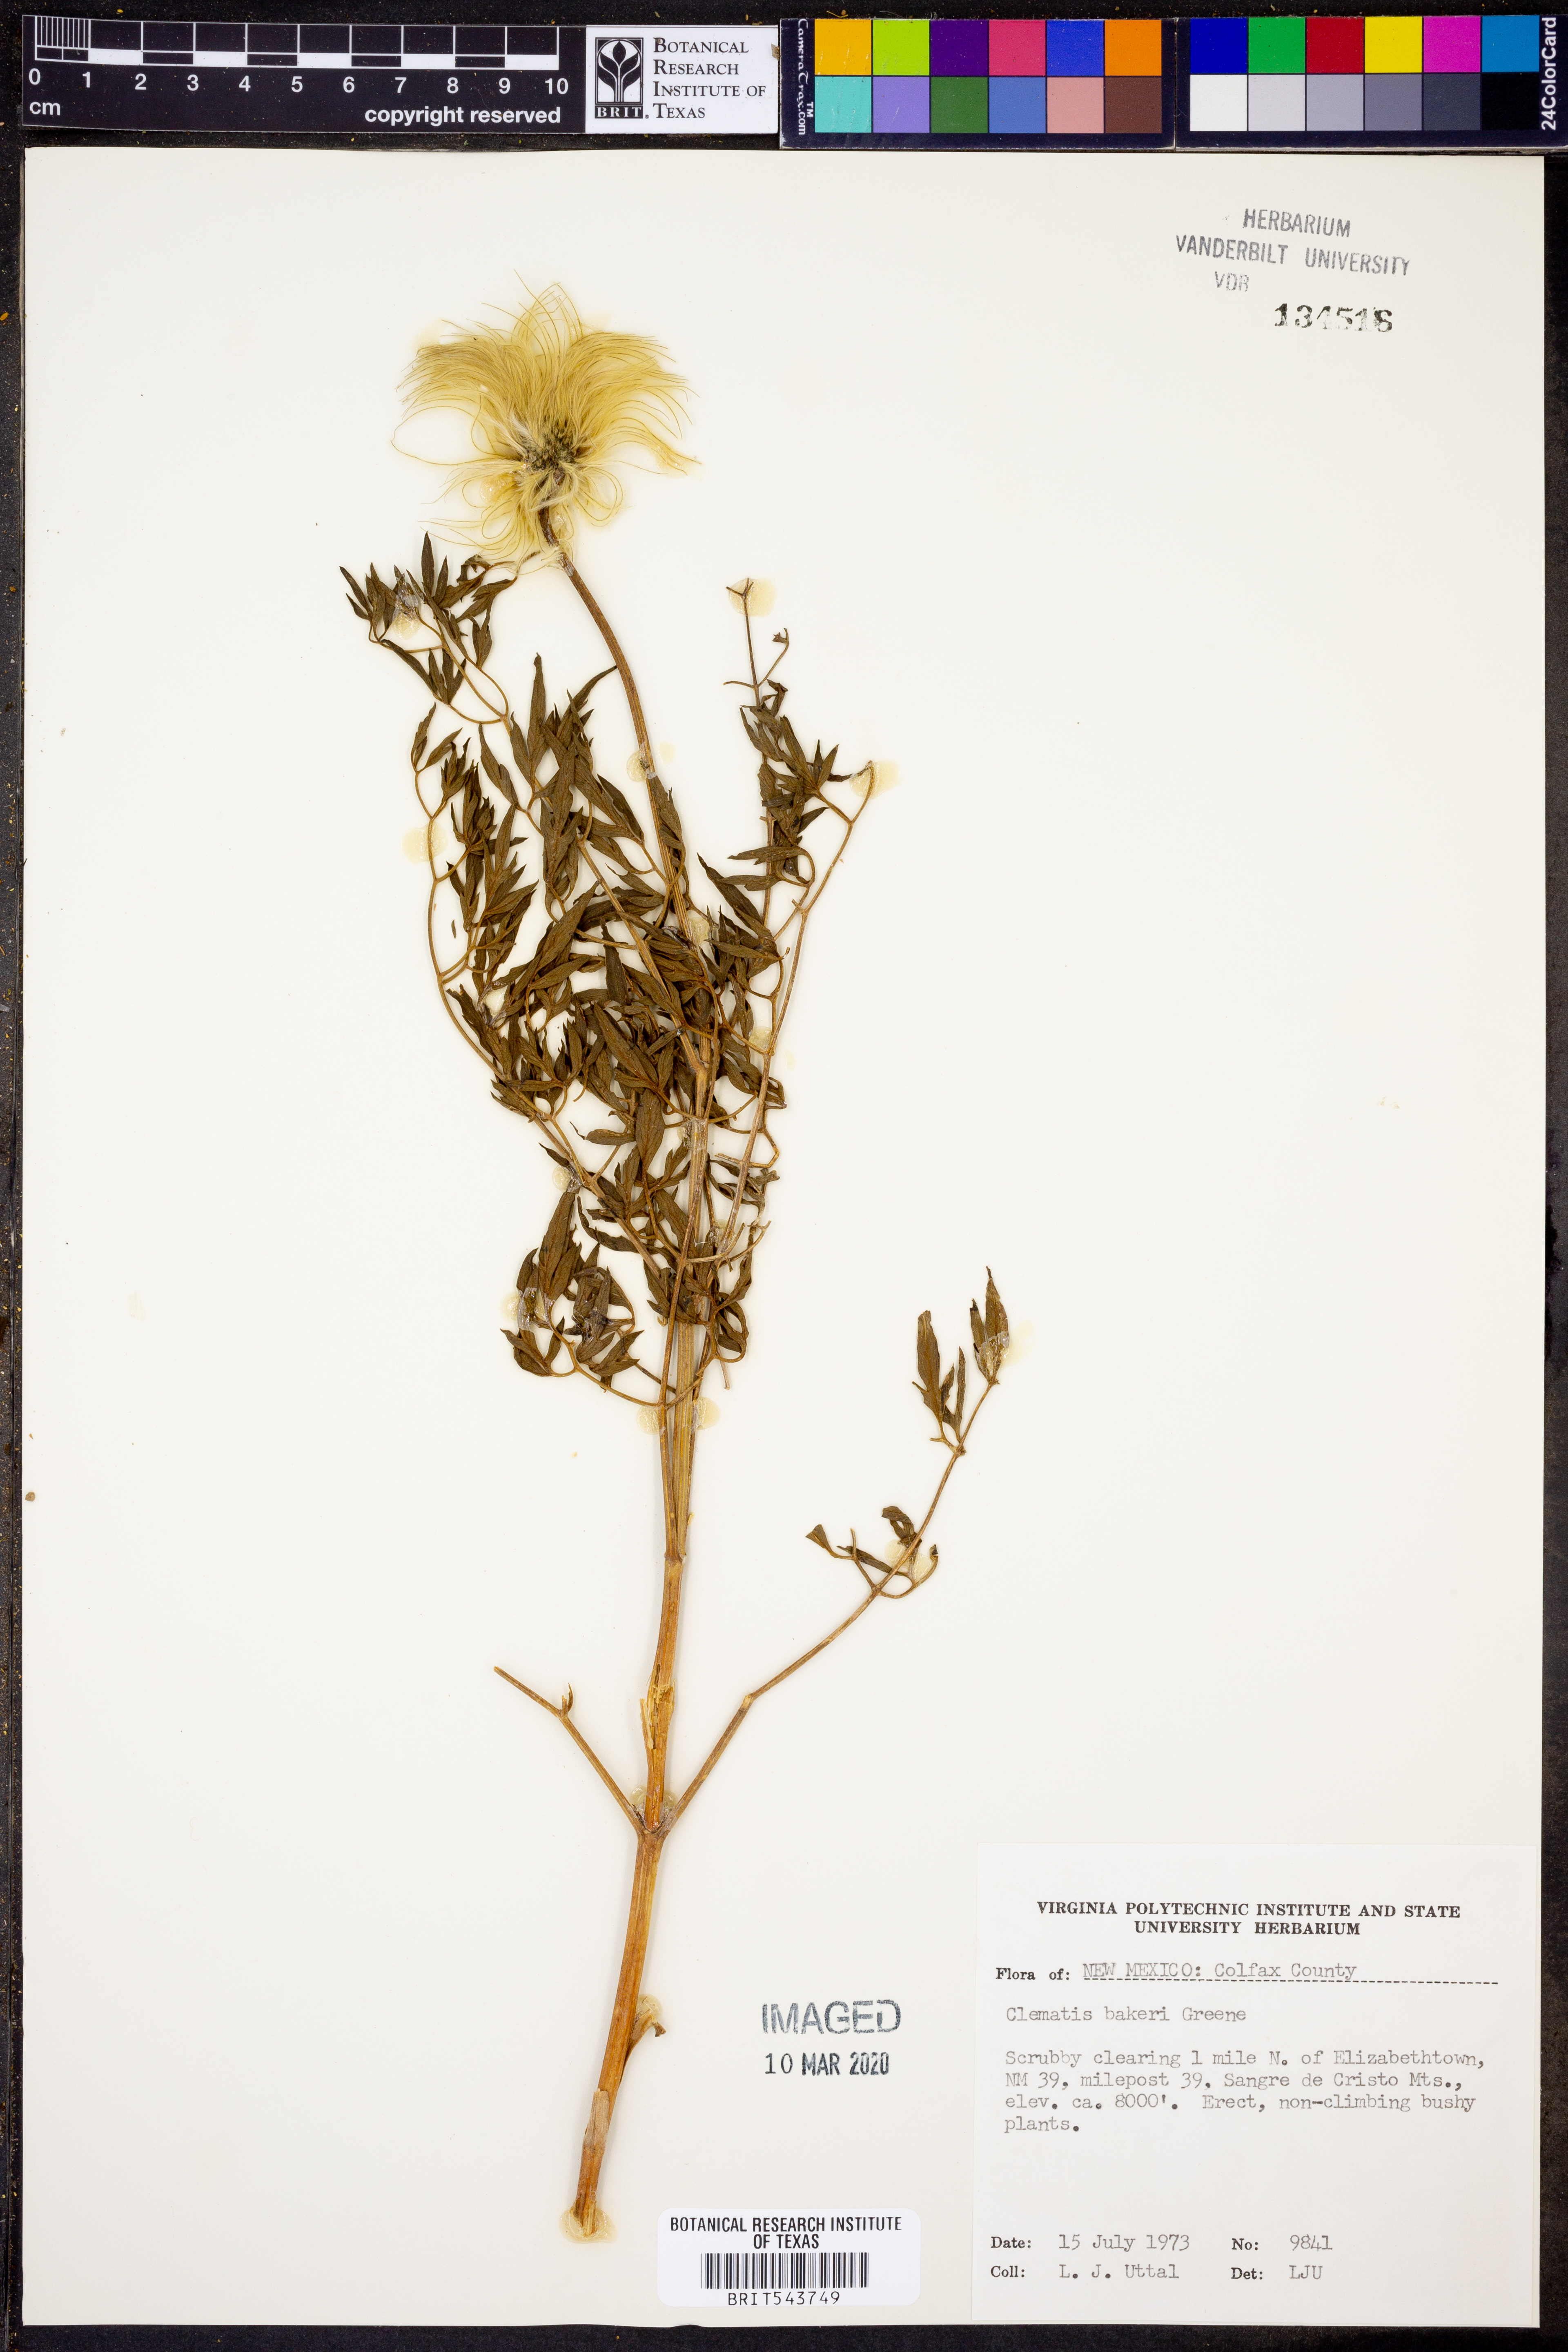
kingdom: Plantae
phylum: Tracheophyta
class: Magnoliopsida
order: Ranunculales
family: Ranunculaceae
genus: Clematis
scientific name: Clematis hirsutissima
